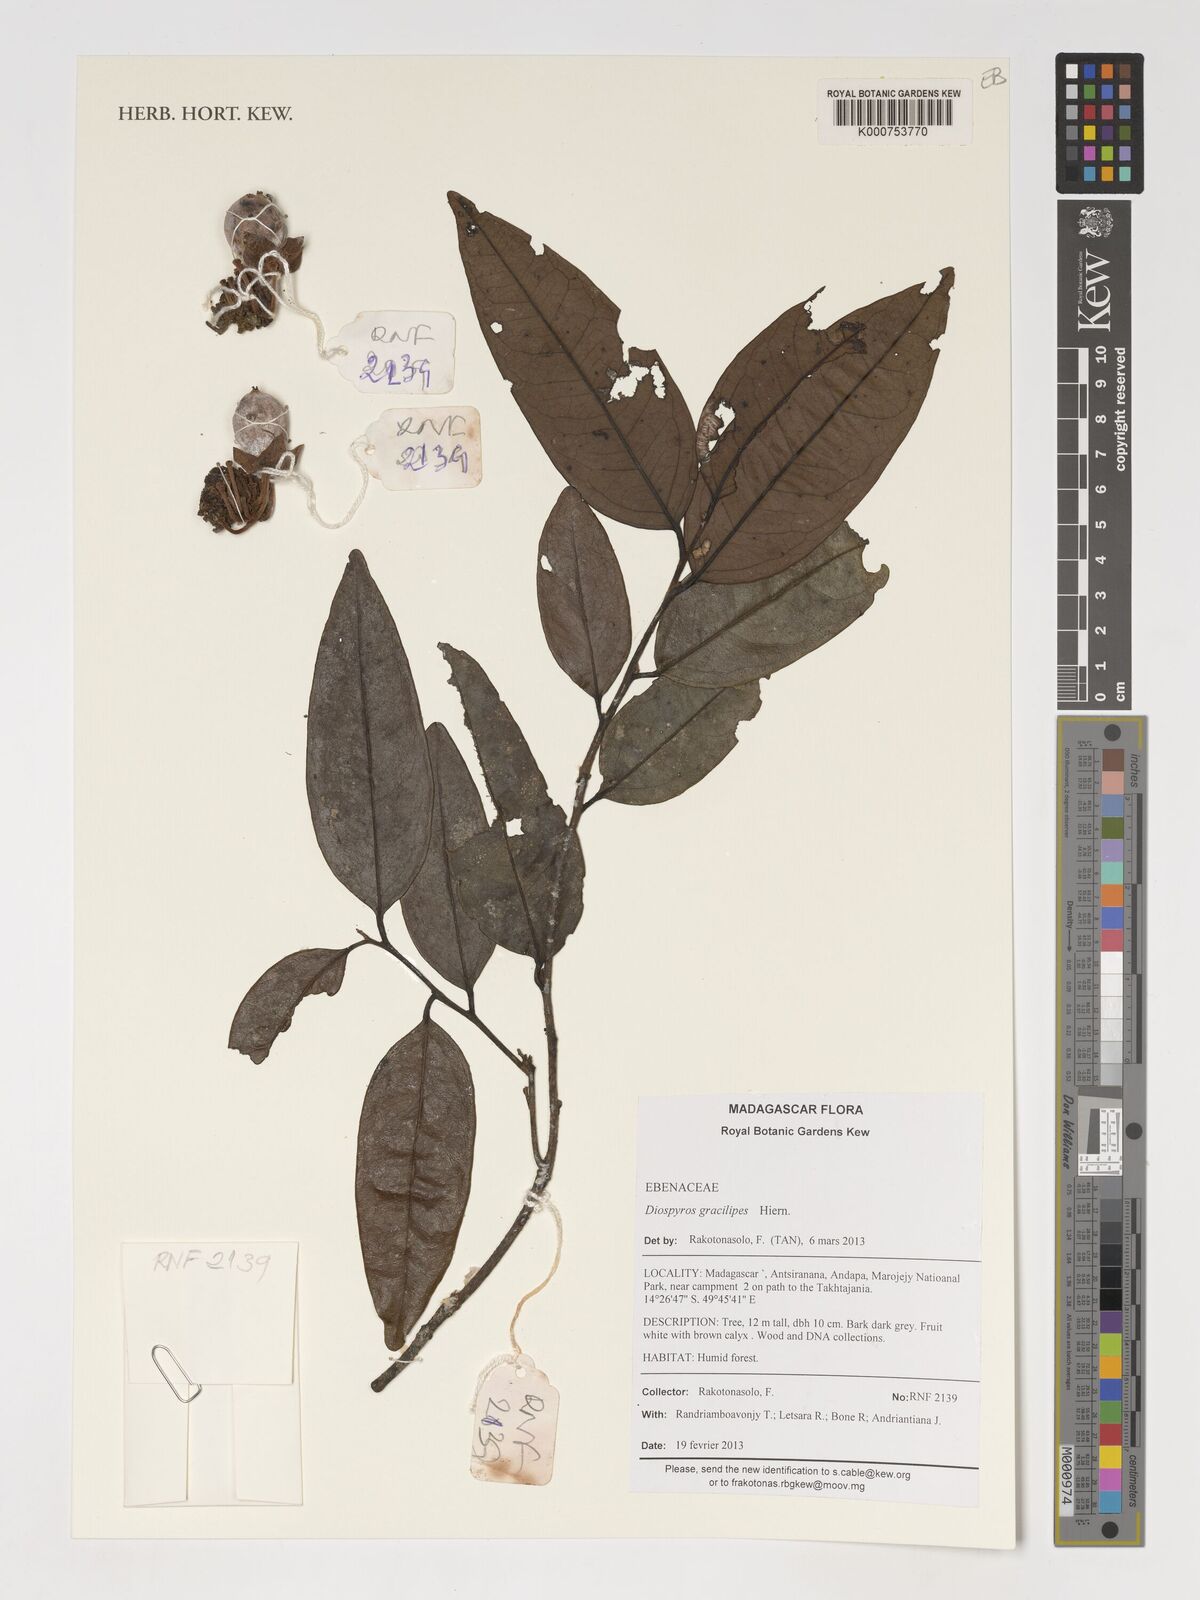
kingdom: Plantae
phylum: Tracheophyta
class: Magnoliopsida
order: Ericales
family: Ebenaceae
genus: Diospyros
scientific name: Diospyros gracilipes
